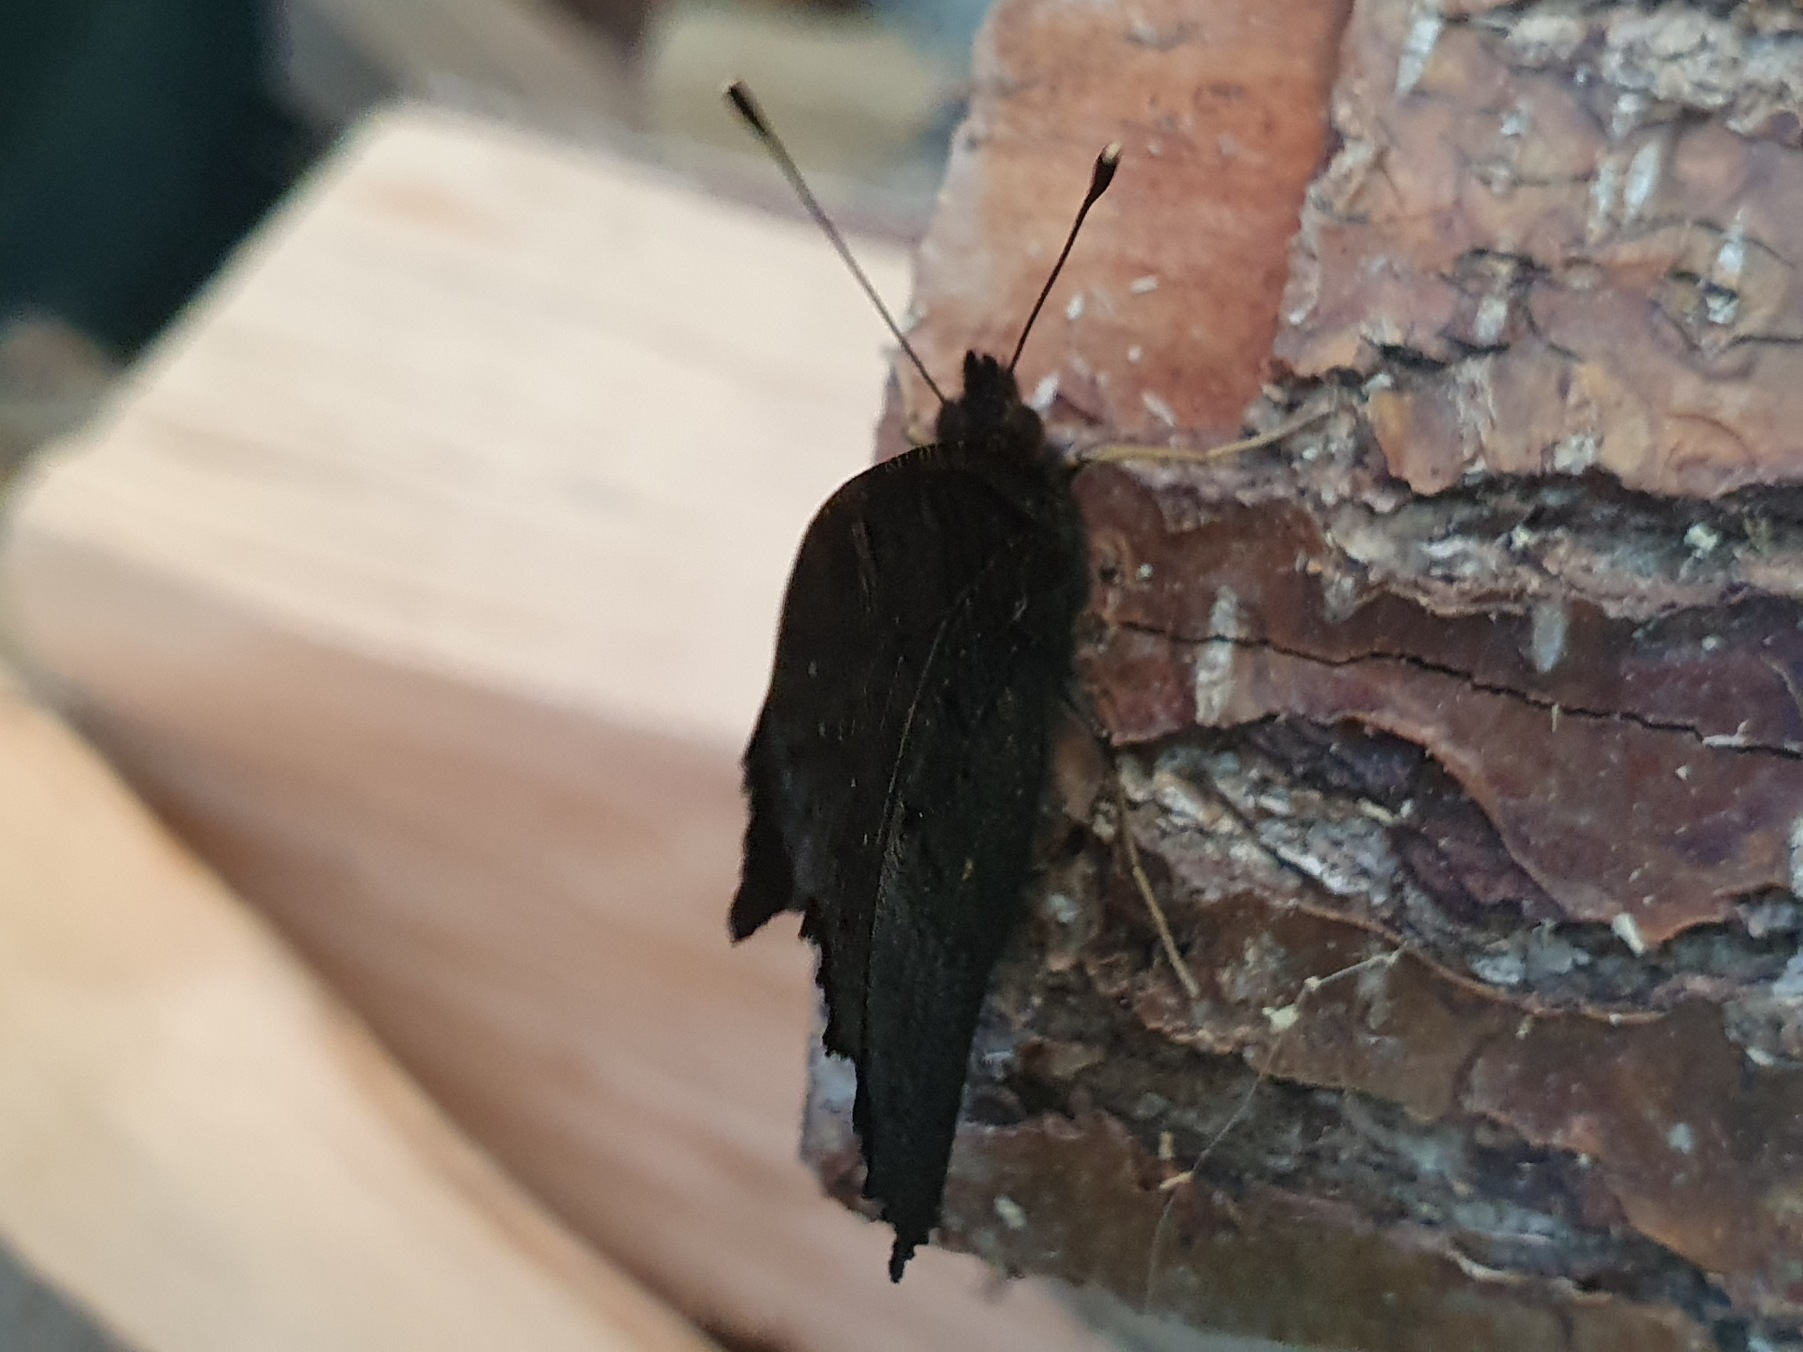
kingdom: Animalia
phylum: Arthropoda
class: Insecta
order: Lepidoptera
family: Nymphalidae
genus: Aglais
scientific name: Aglais io
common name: Dagpåfugleøje
